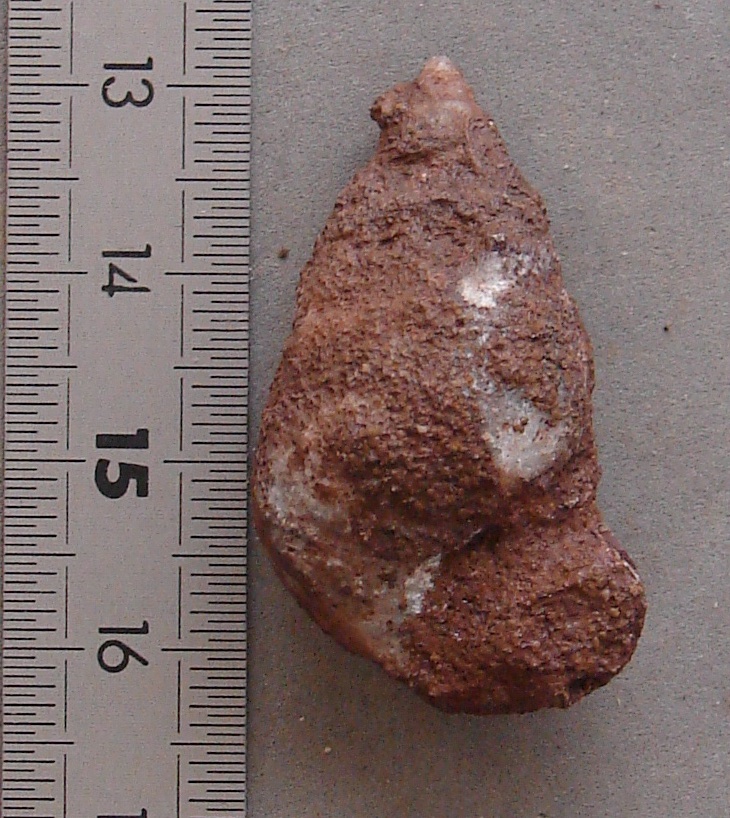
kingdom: Animalia
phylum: Mollusca
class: Gastropoda
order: Neogastropoda
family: Purpurinidae
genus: Microschiza
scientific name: Microschiza
